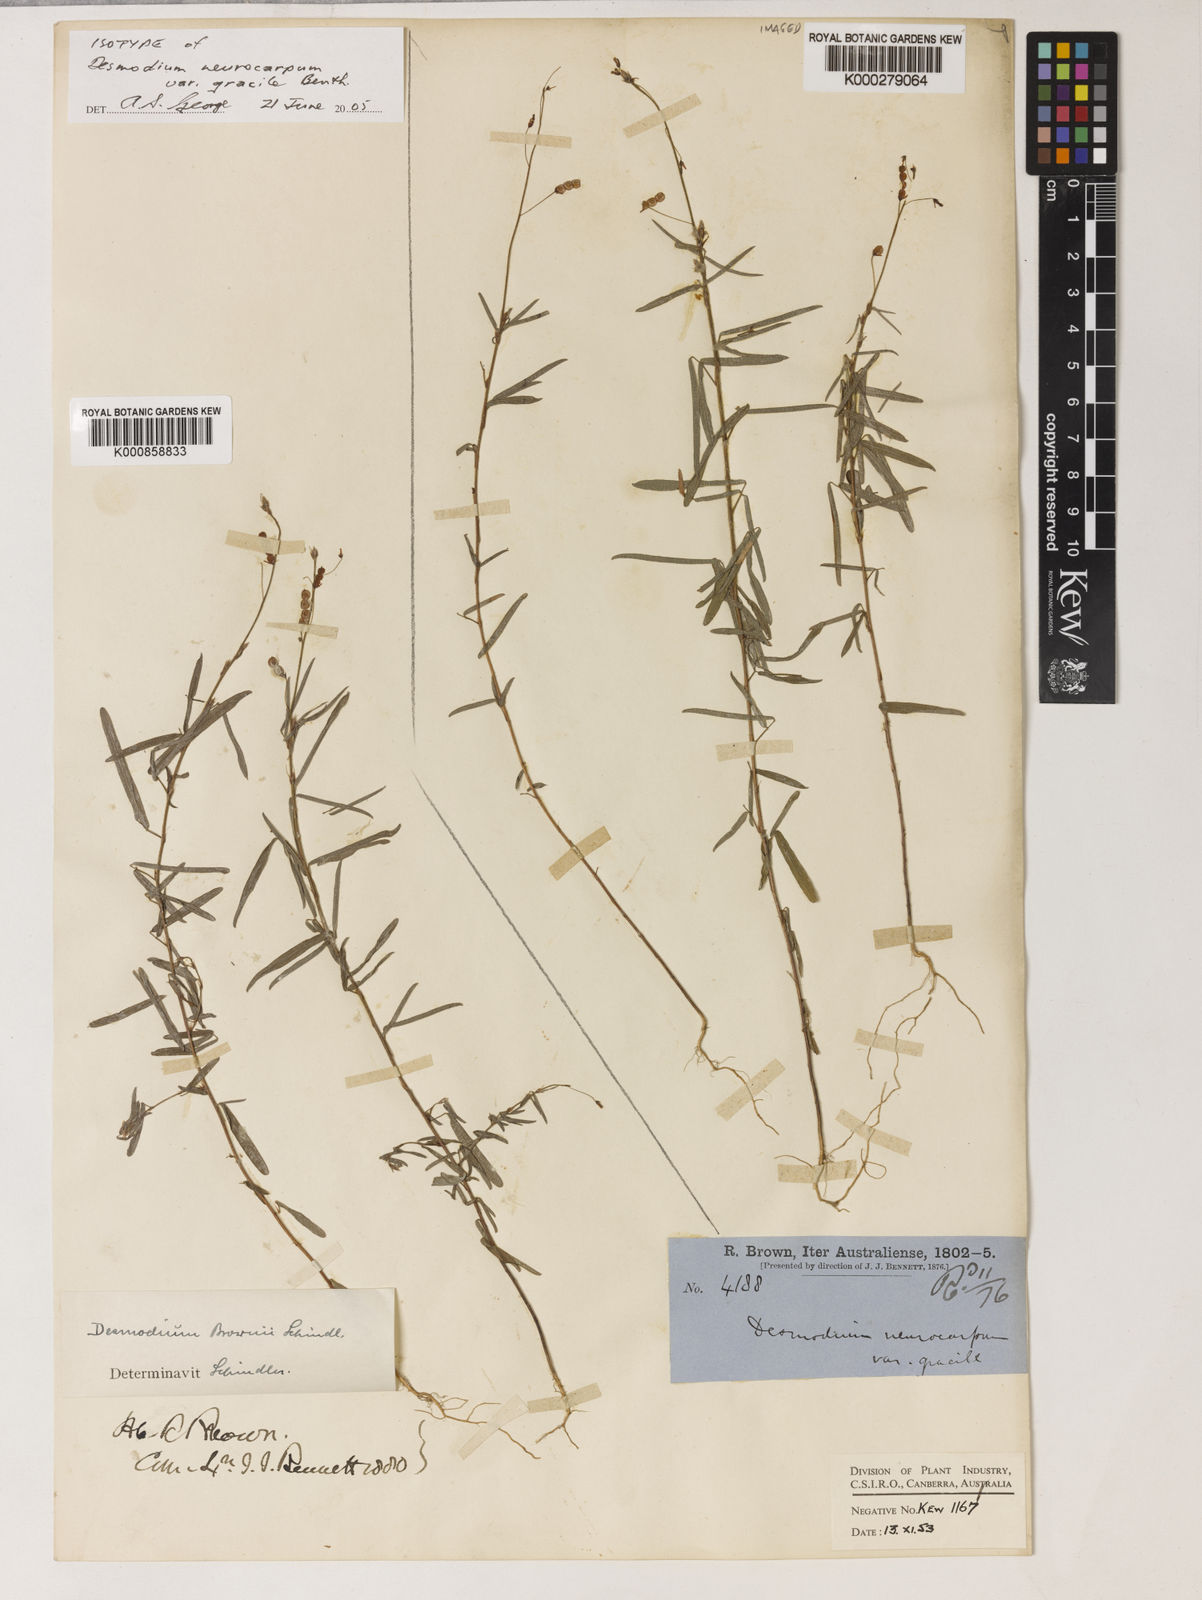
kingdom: Plantae
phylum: Tracheophyta
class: Magnoliopsida
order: Fabales
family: Fabaceae
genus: Grona
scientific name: Grona brownii
